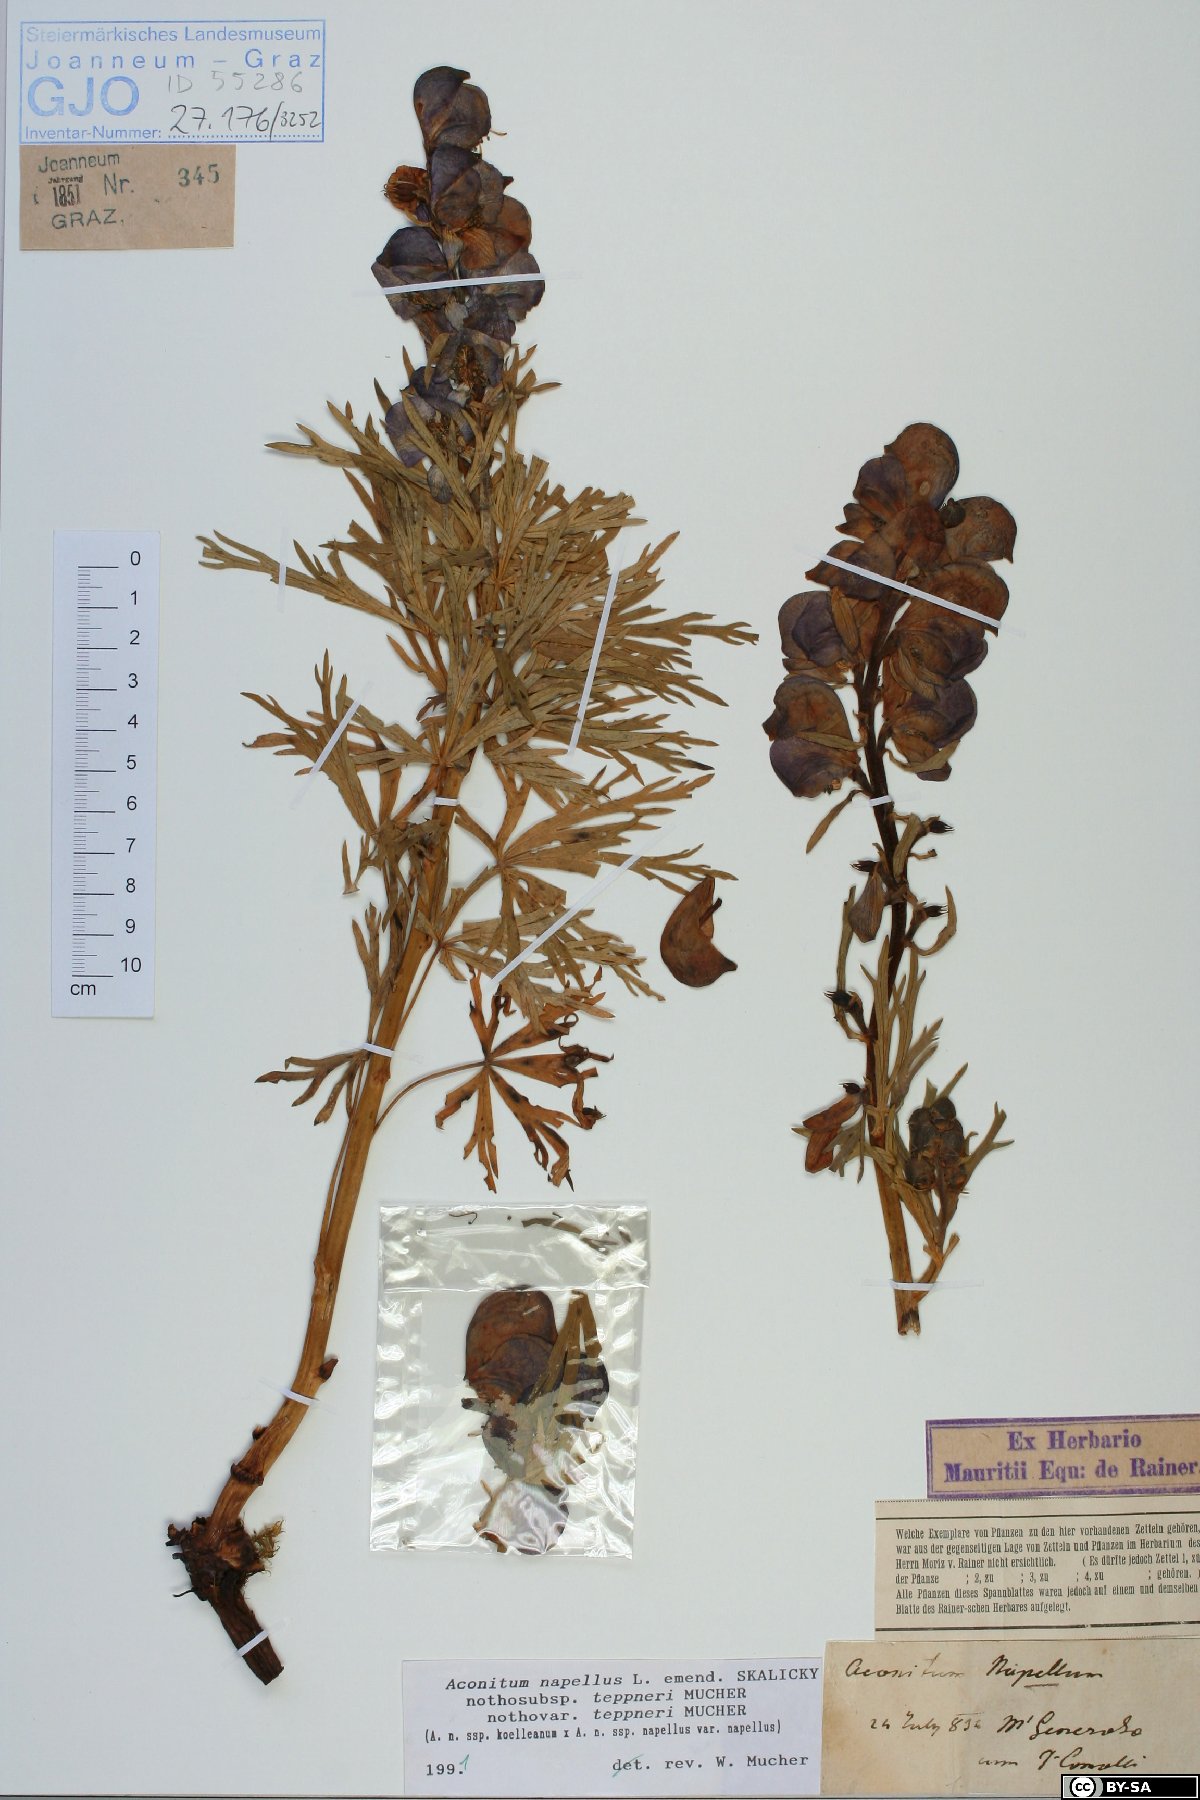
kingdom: Plantae
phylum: Tracheophyta
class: Magnoliopsida
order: Ranunculales
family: Ranunculaceae
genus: Aconitum
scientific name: Aconitum napellus
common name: Garden monkshood
